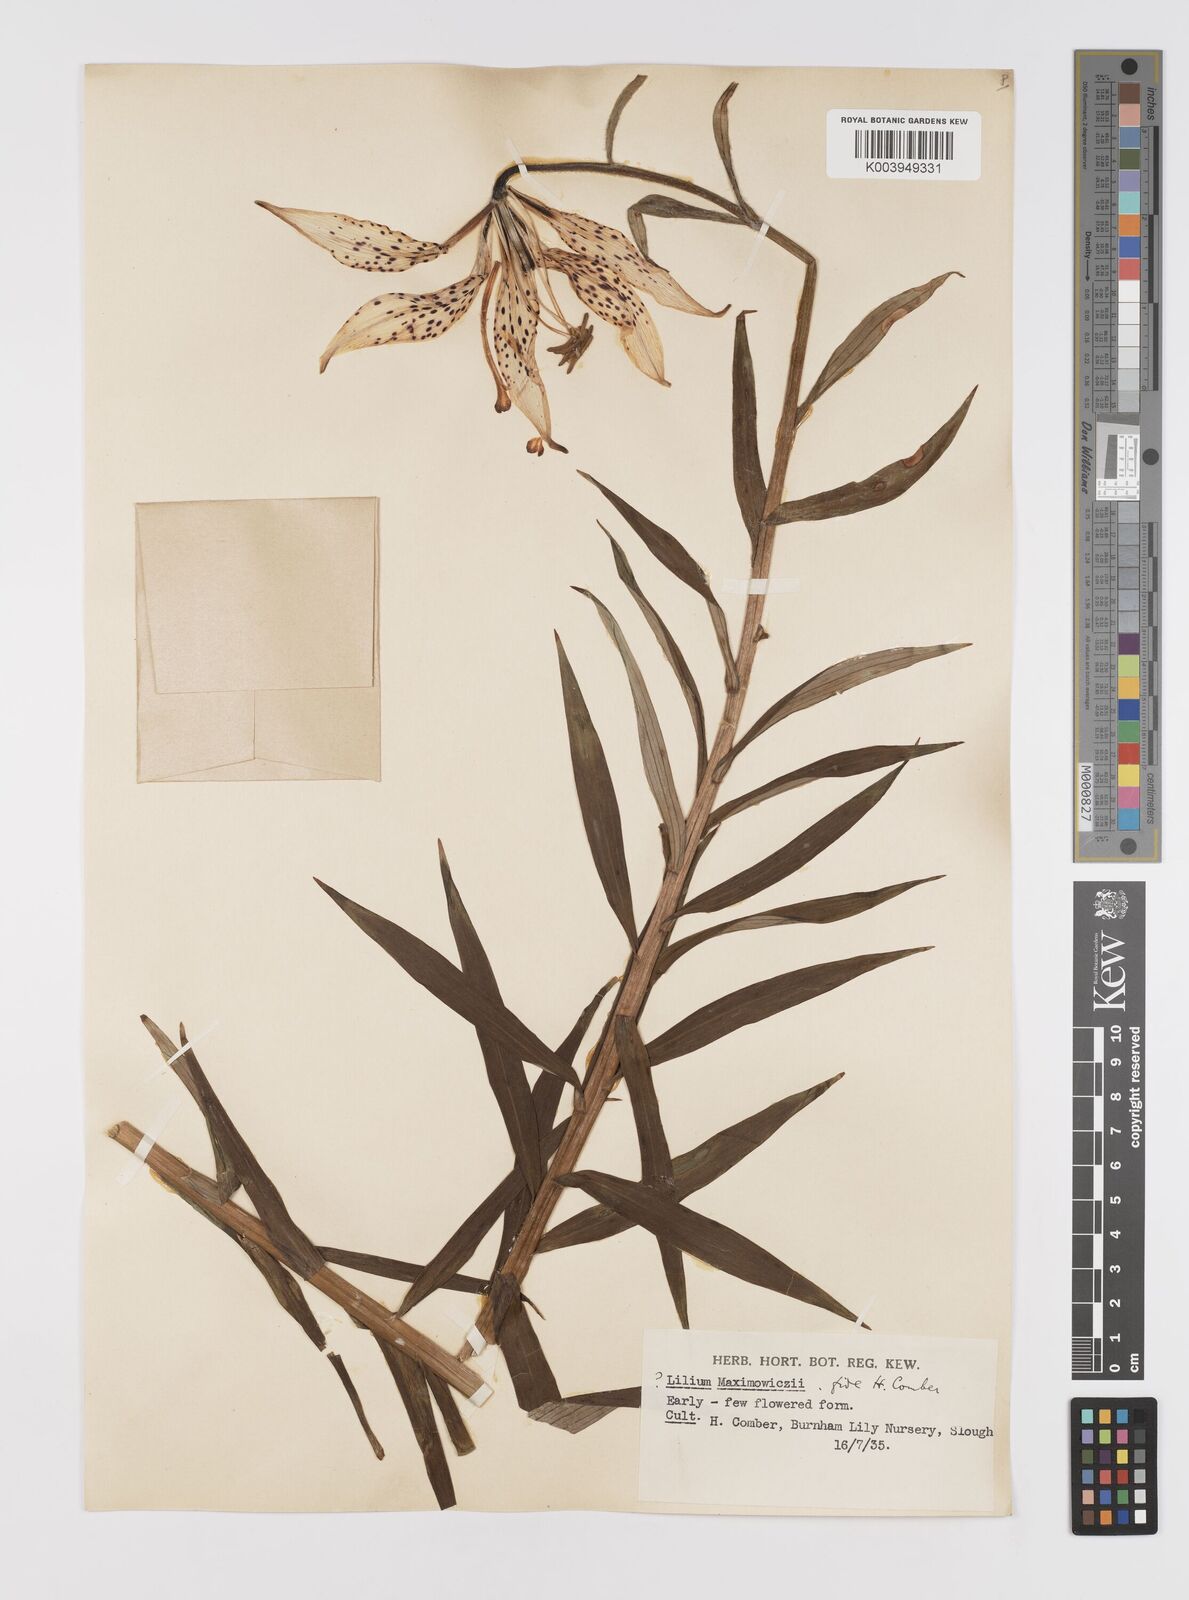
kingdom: Plantae
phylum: Tracheophyta
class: Liliopsida
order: Liliales
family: Liliaceae
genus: Lilium
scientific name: Lilium leichtlinii
